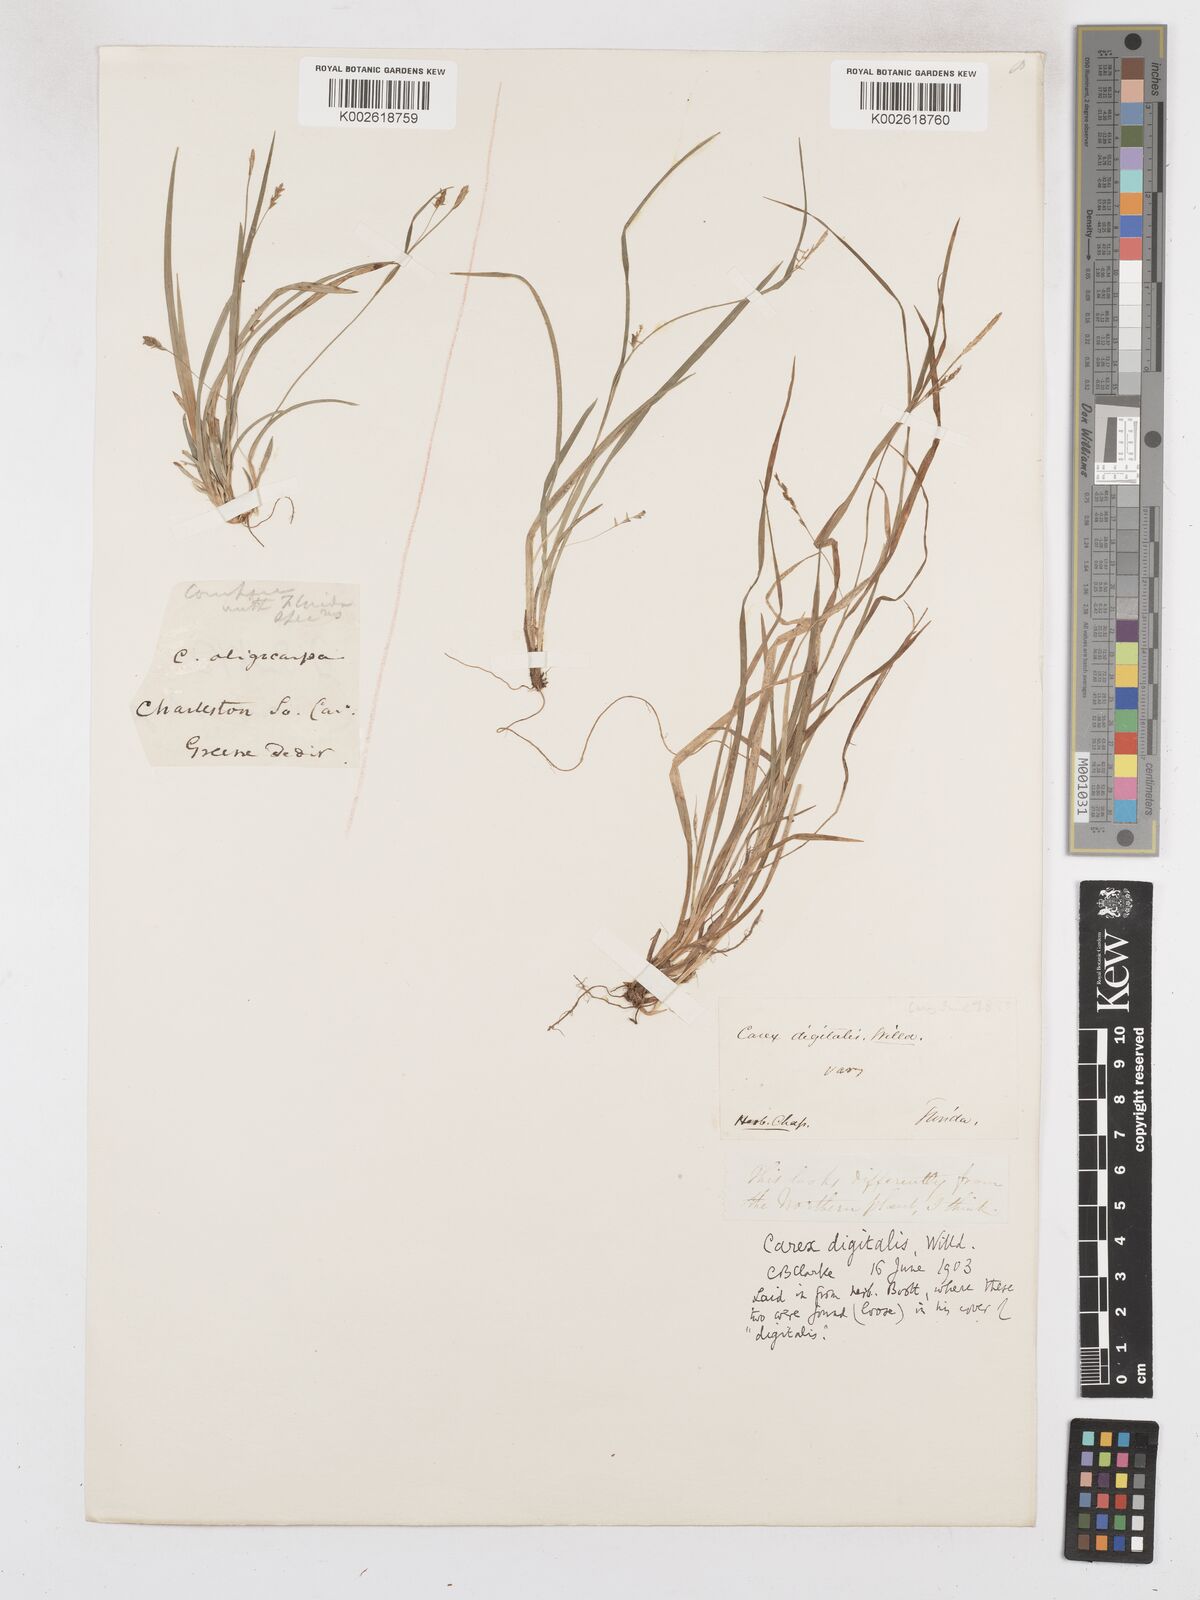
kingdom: Plantae
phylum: Tracheophyta
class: Liliopsida
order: Poales
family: Cyperaceae
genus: Carex
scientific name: Carex abscondita
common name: Thicket sedge
